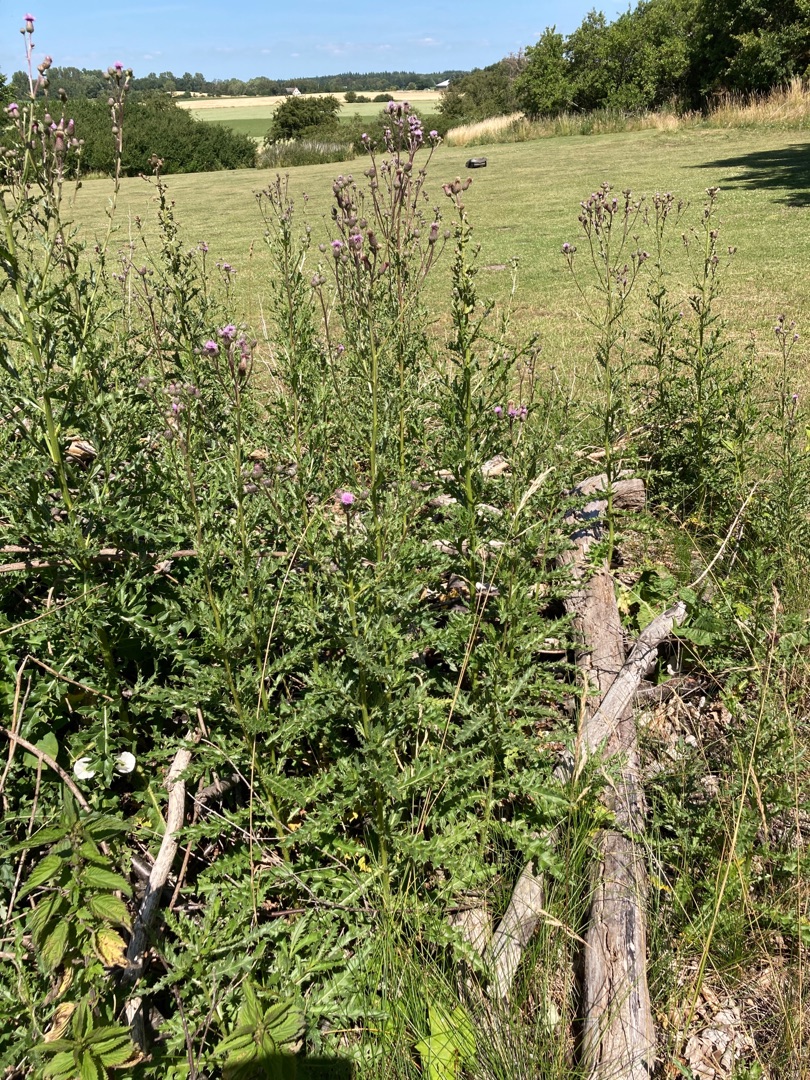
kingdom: Plantae
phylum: Tracheophyta
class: Magnoliopsida
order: Asterales
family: Asteraceae
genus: Cirsium
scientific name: Cirsium arvense
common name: Ager-tidsel
